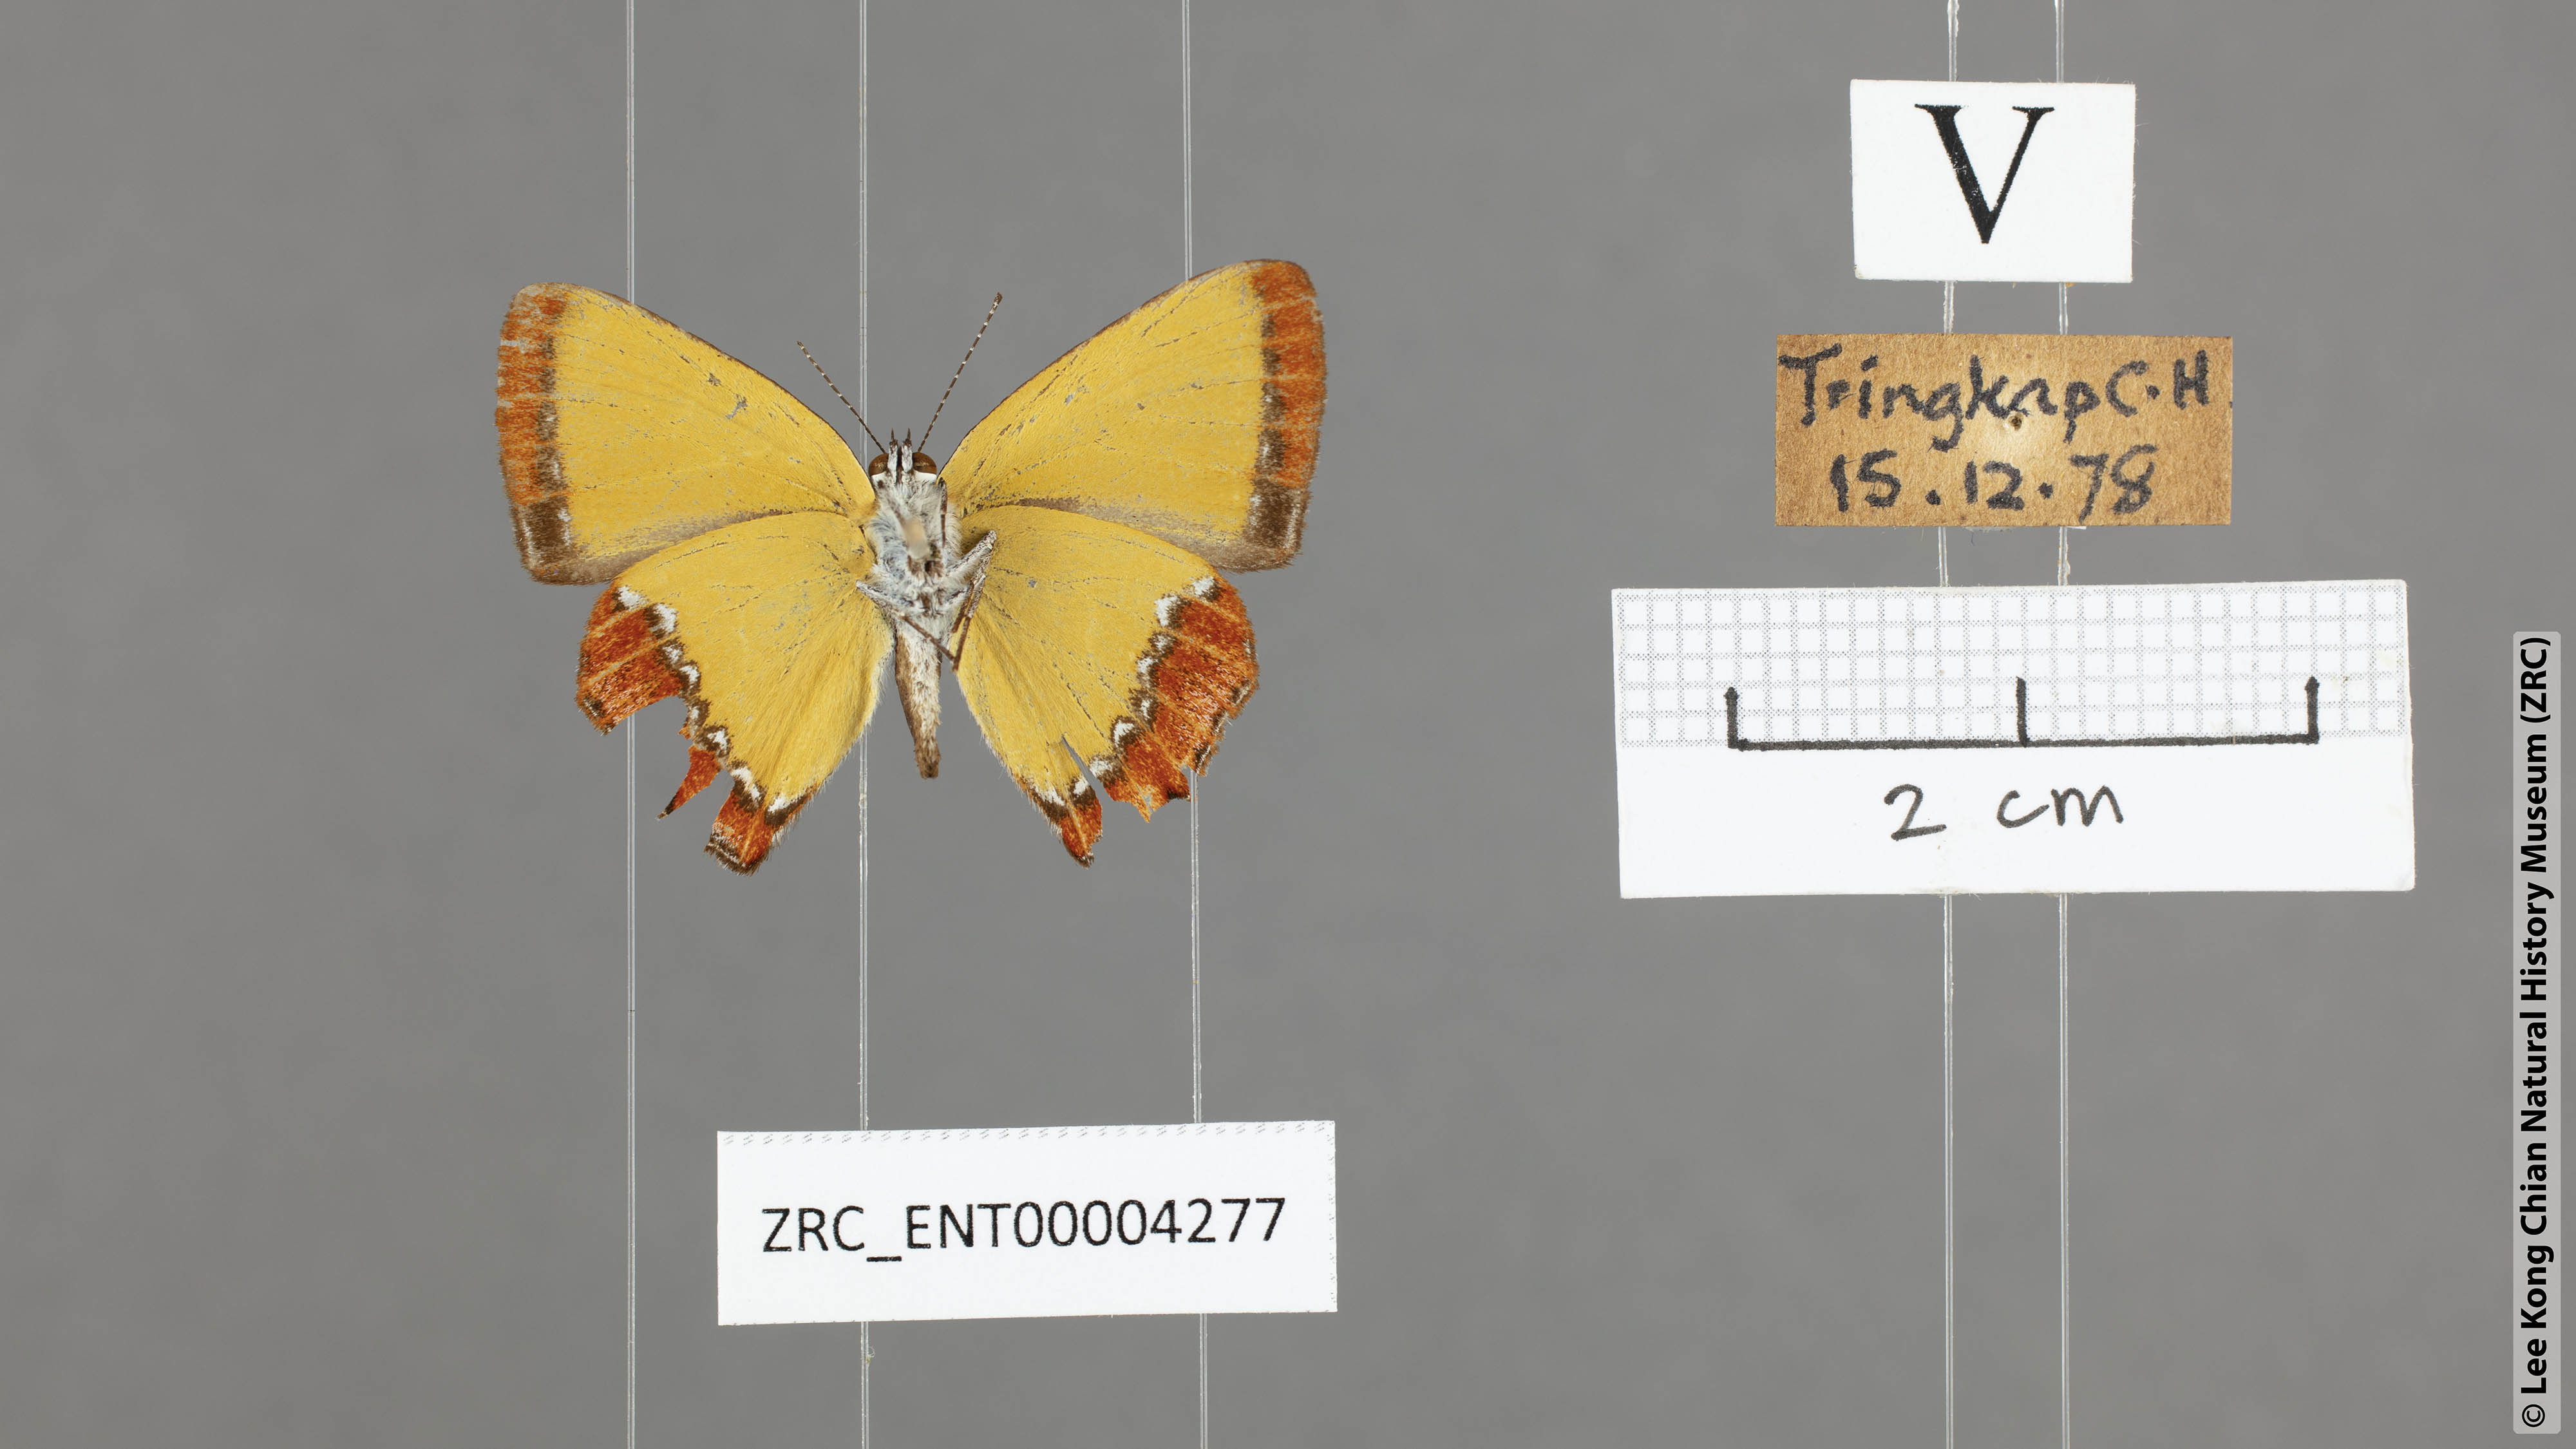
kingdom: Animalia
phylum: Arthropoda
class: Insecta
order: Lepidoptera
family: Lycaenidae
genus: Heliophorus
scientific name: Heliophorus ila
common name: Restricted purple sapphire
